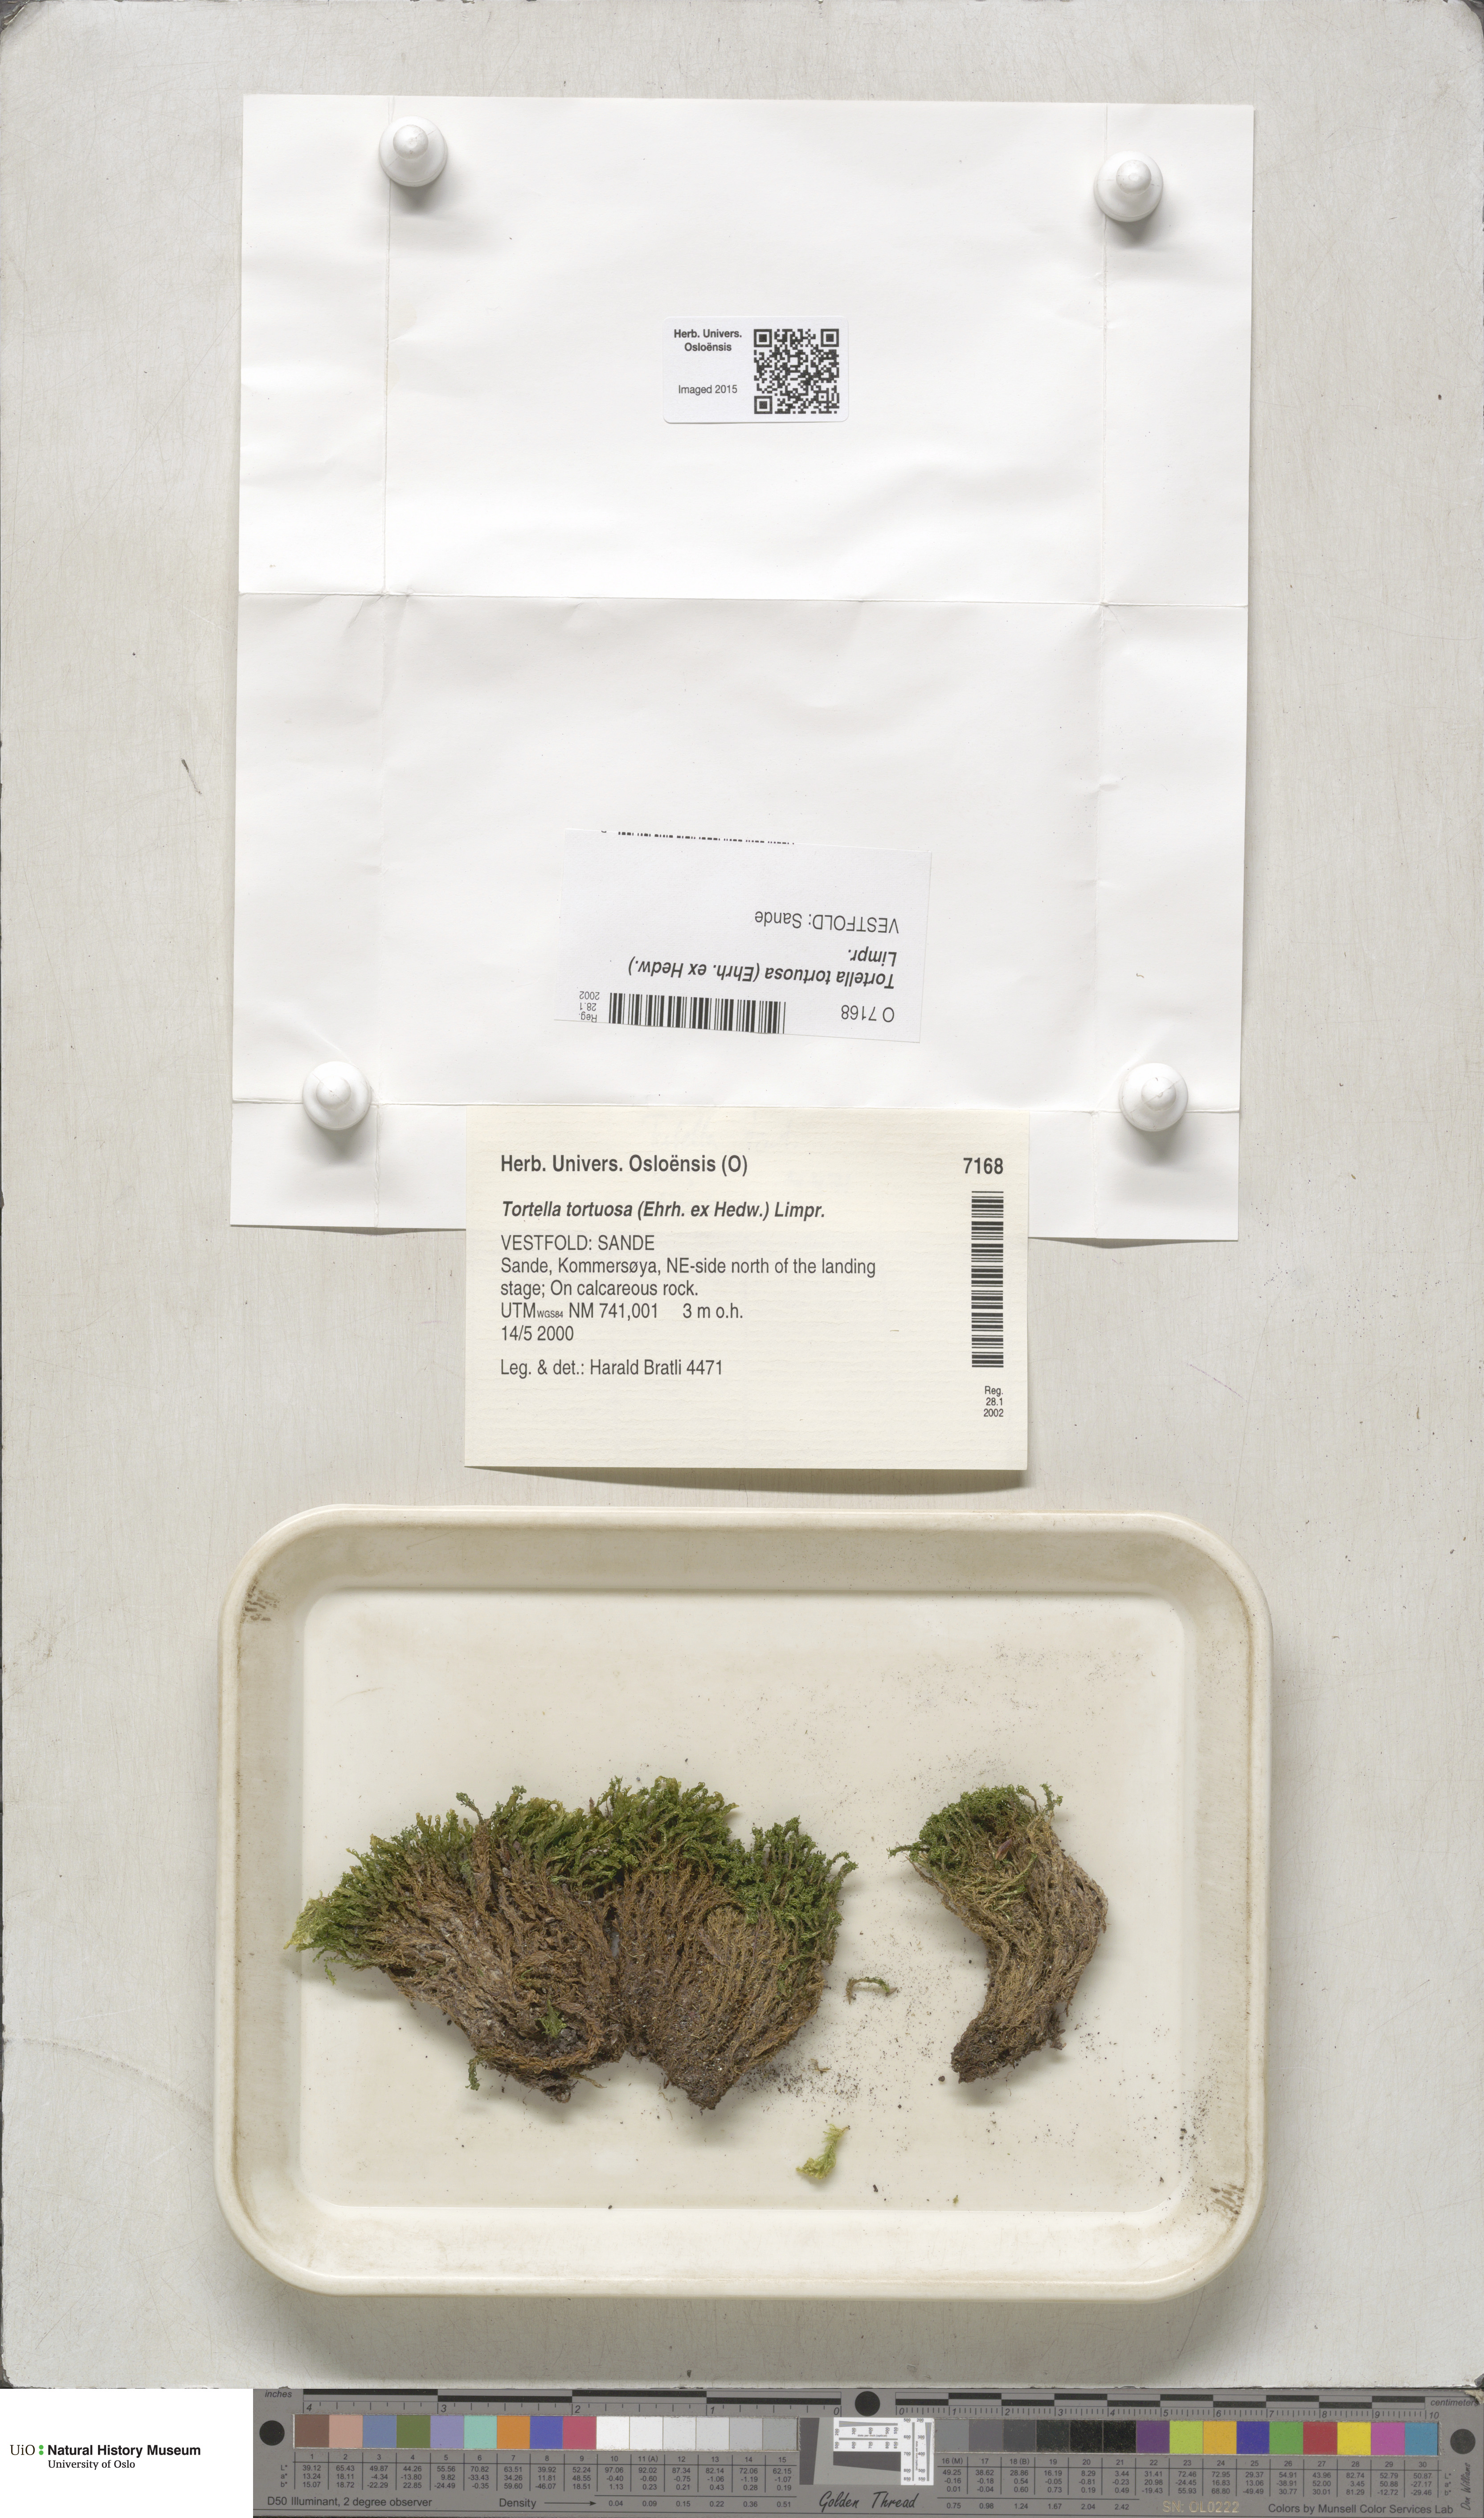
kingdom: Plantae
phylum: Bryophyta
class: Bryopsida
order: Pottiales
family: Pottiaceae
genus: Tortella
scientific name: Tortella tortuosa
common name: Frizzled crisp moss
